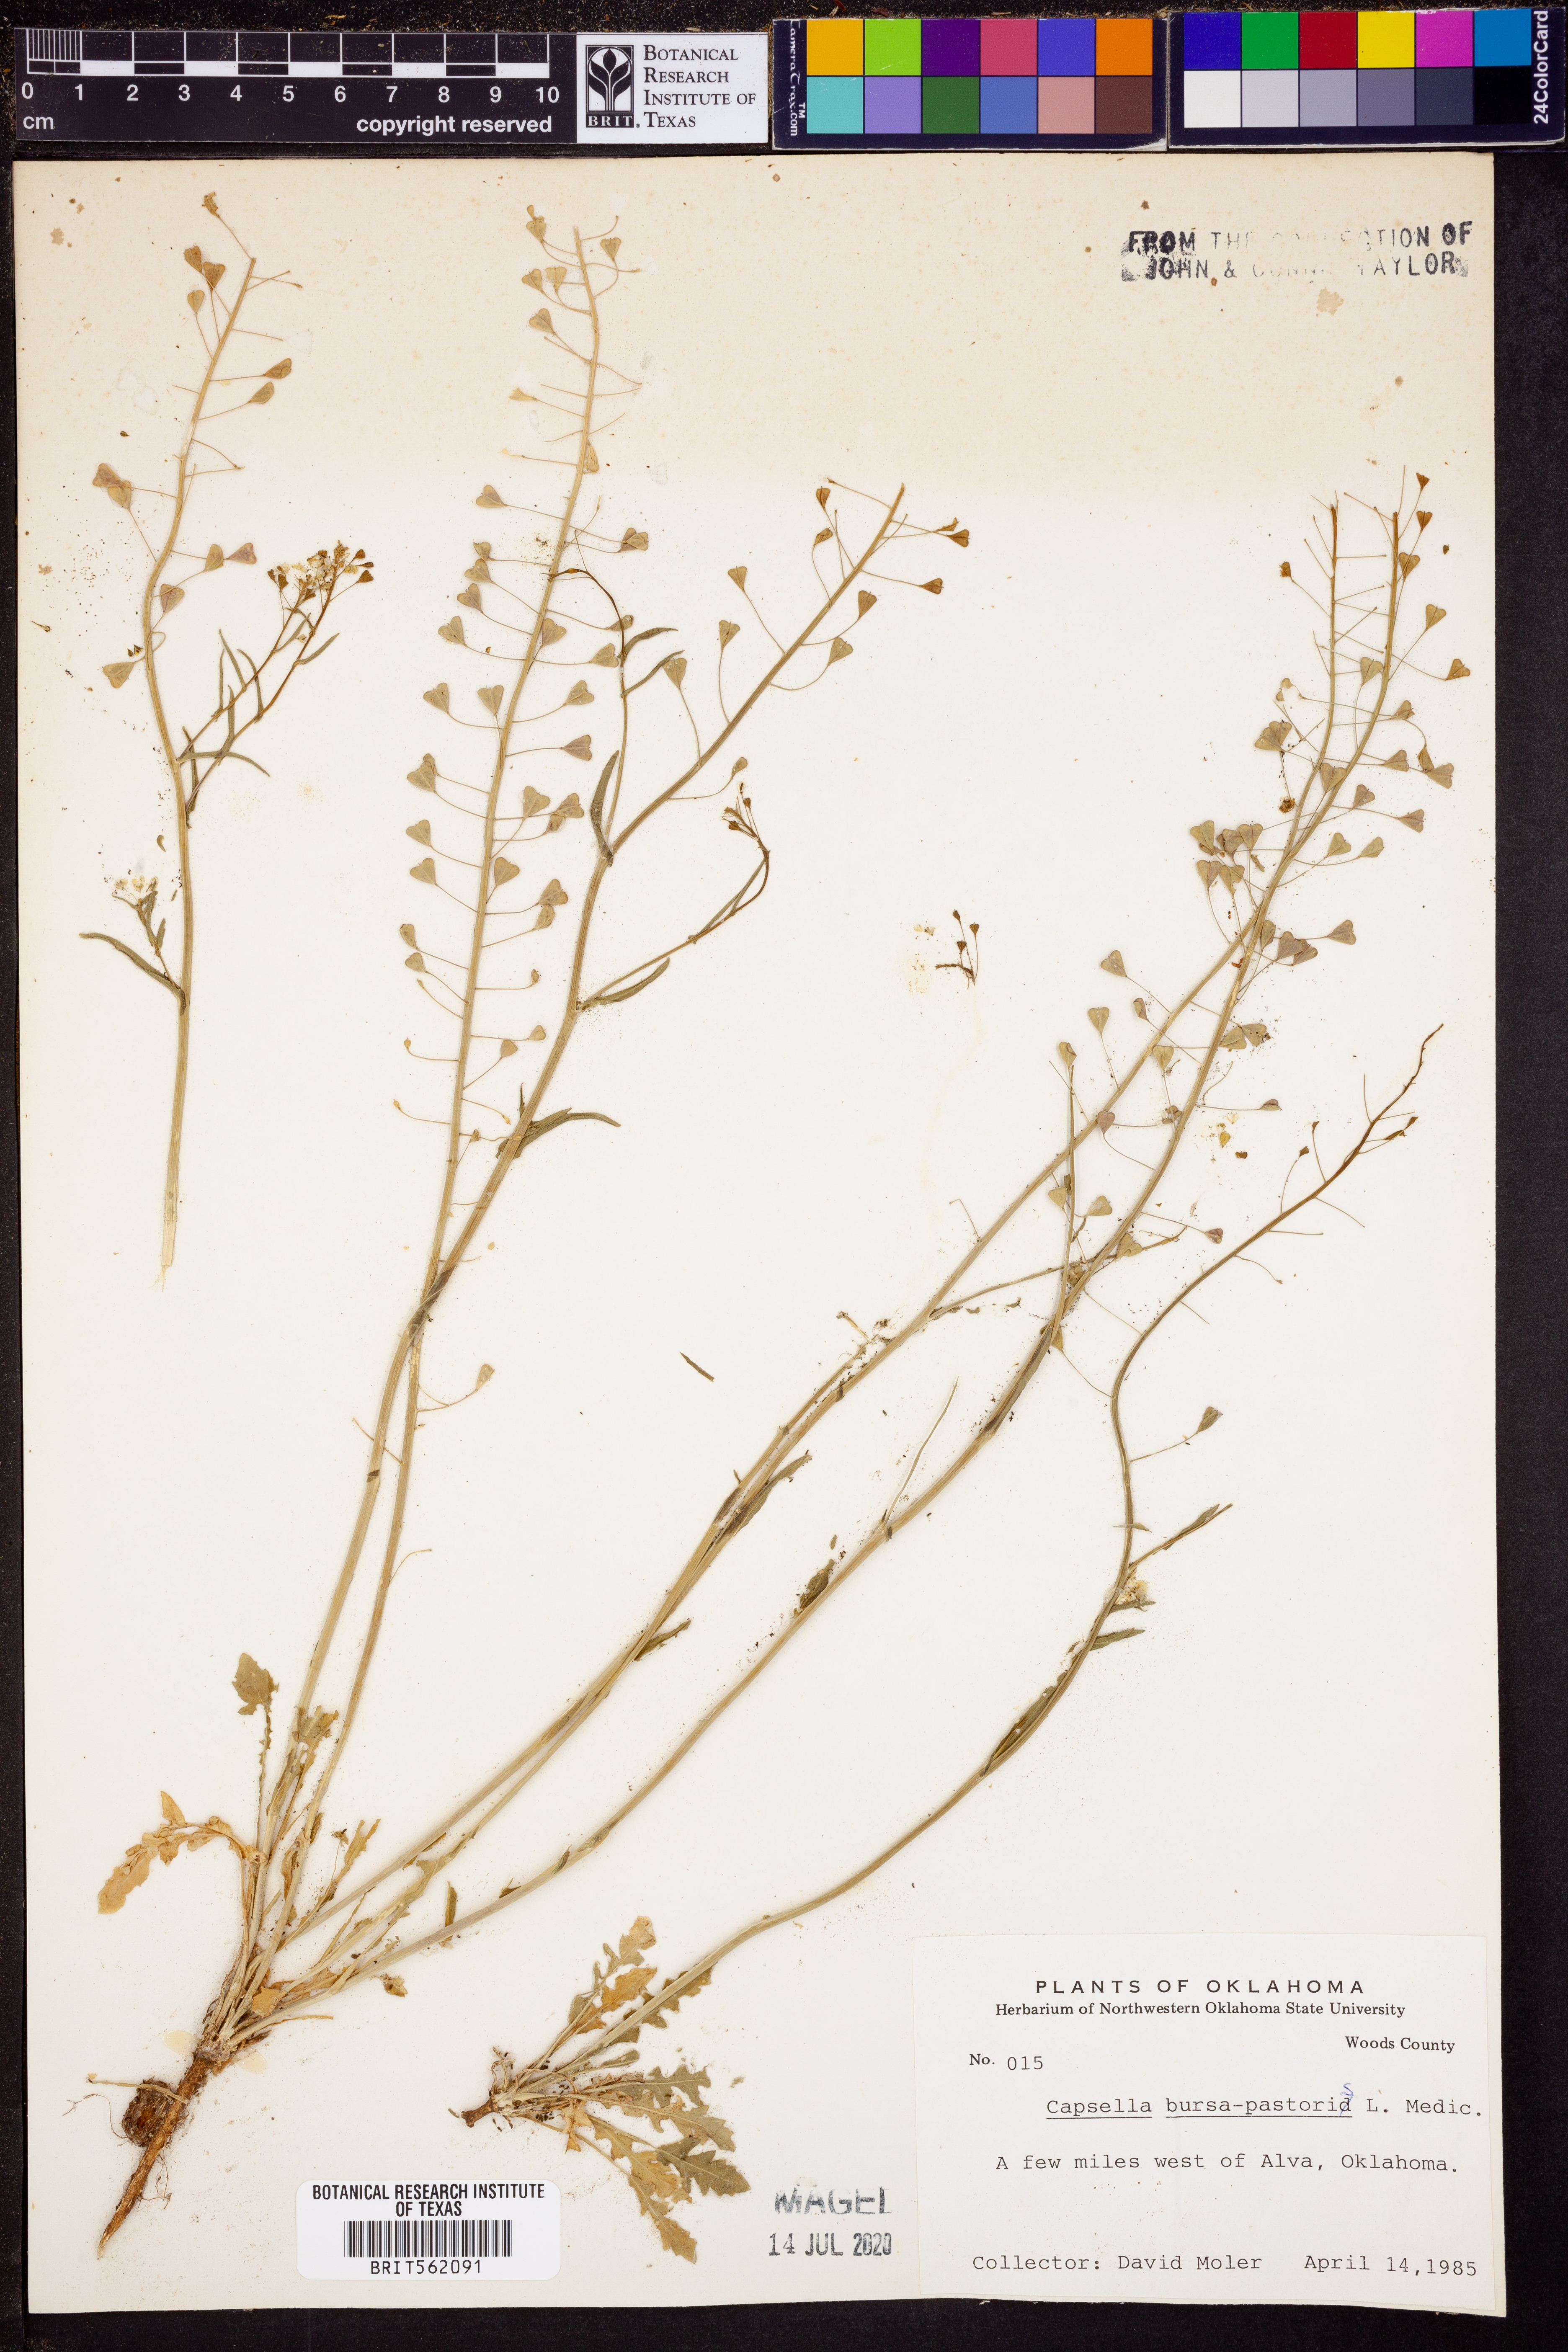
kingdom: Plantae
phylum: Tracheophyta
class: Magnoliopsida
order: Brassicales
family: Brassicaceae
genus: Capsella
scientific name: Capsella bursa-pastoris
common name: Shepherd's purse
